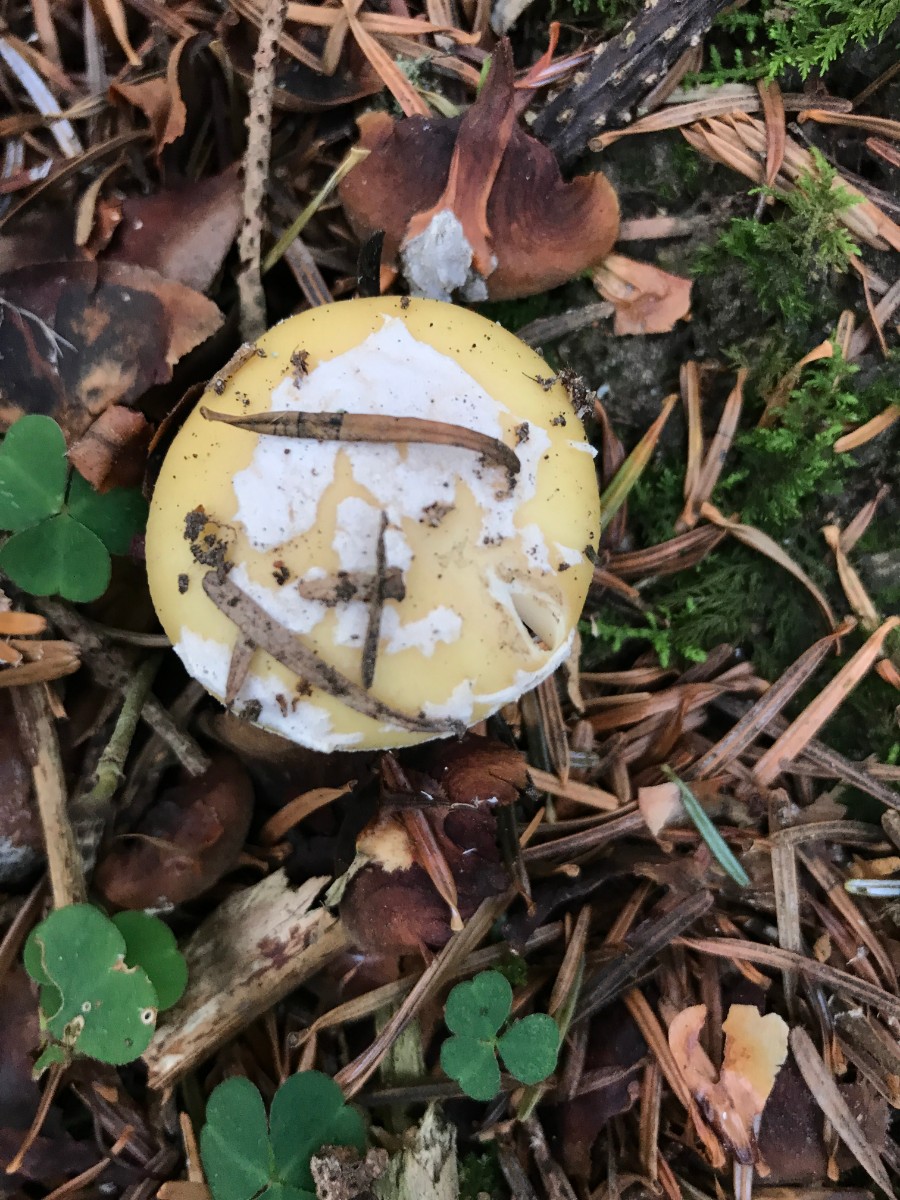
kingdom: Fungi
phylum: Basidiomycota
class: Agaricomycetes
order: Agaricales
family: Amanitaceae
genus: Amanita
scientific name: Amanita gemmata
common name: okkergul fluesvamp
